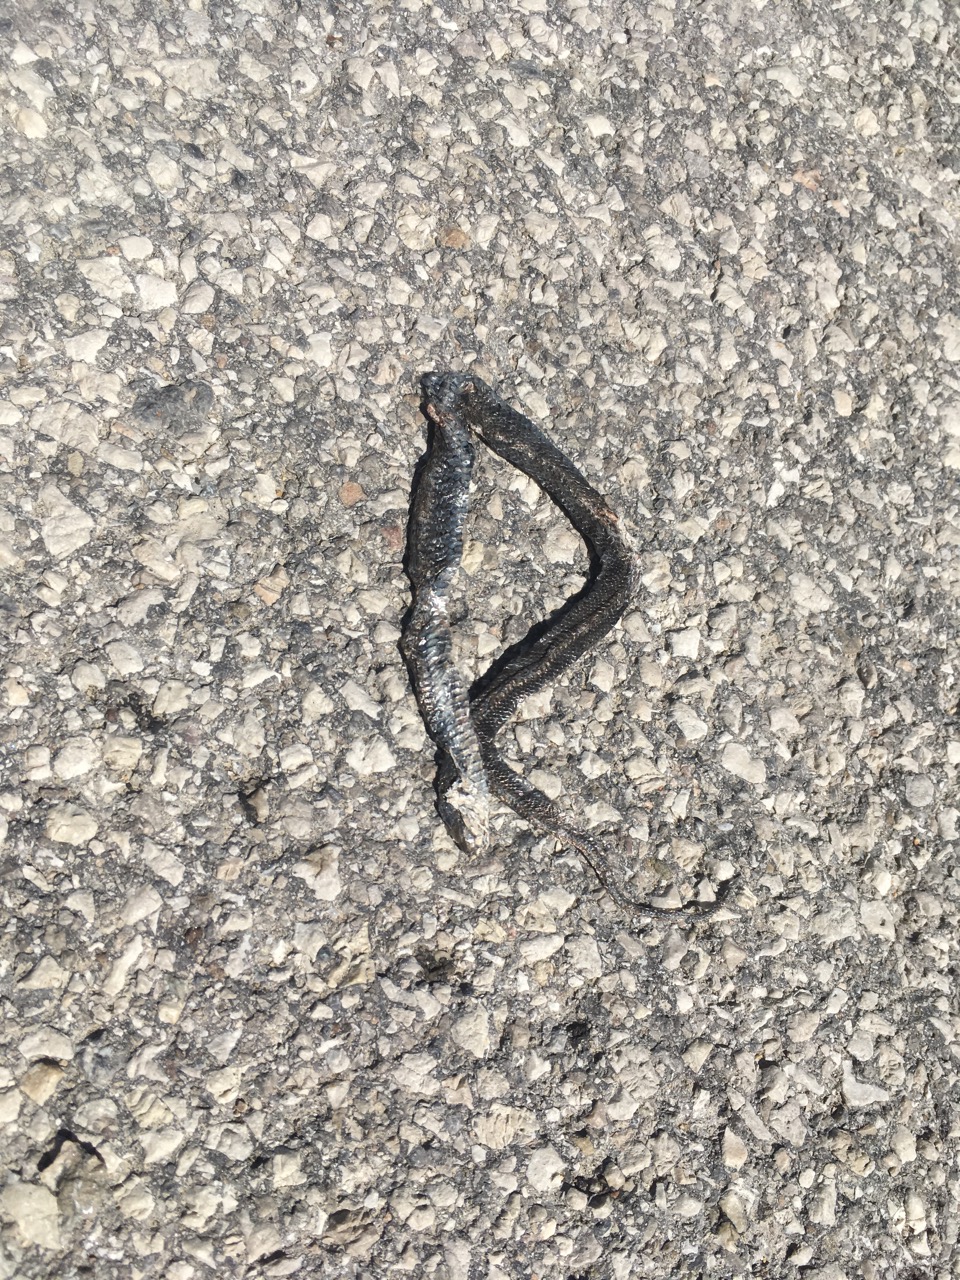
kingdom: Animalia
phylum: Chordata
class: Squamata
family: Colubridae
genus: Natrix
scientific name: Natrix natrix
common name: Grass snake
